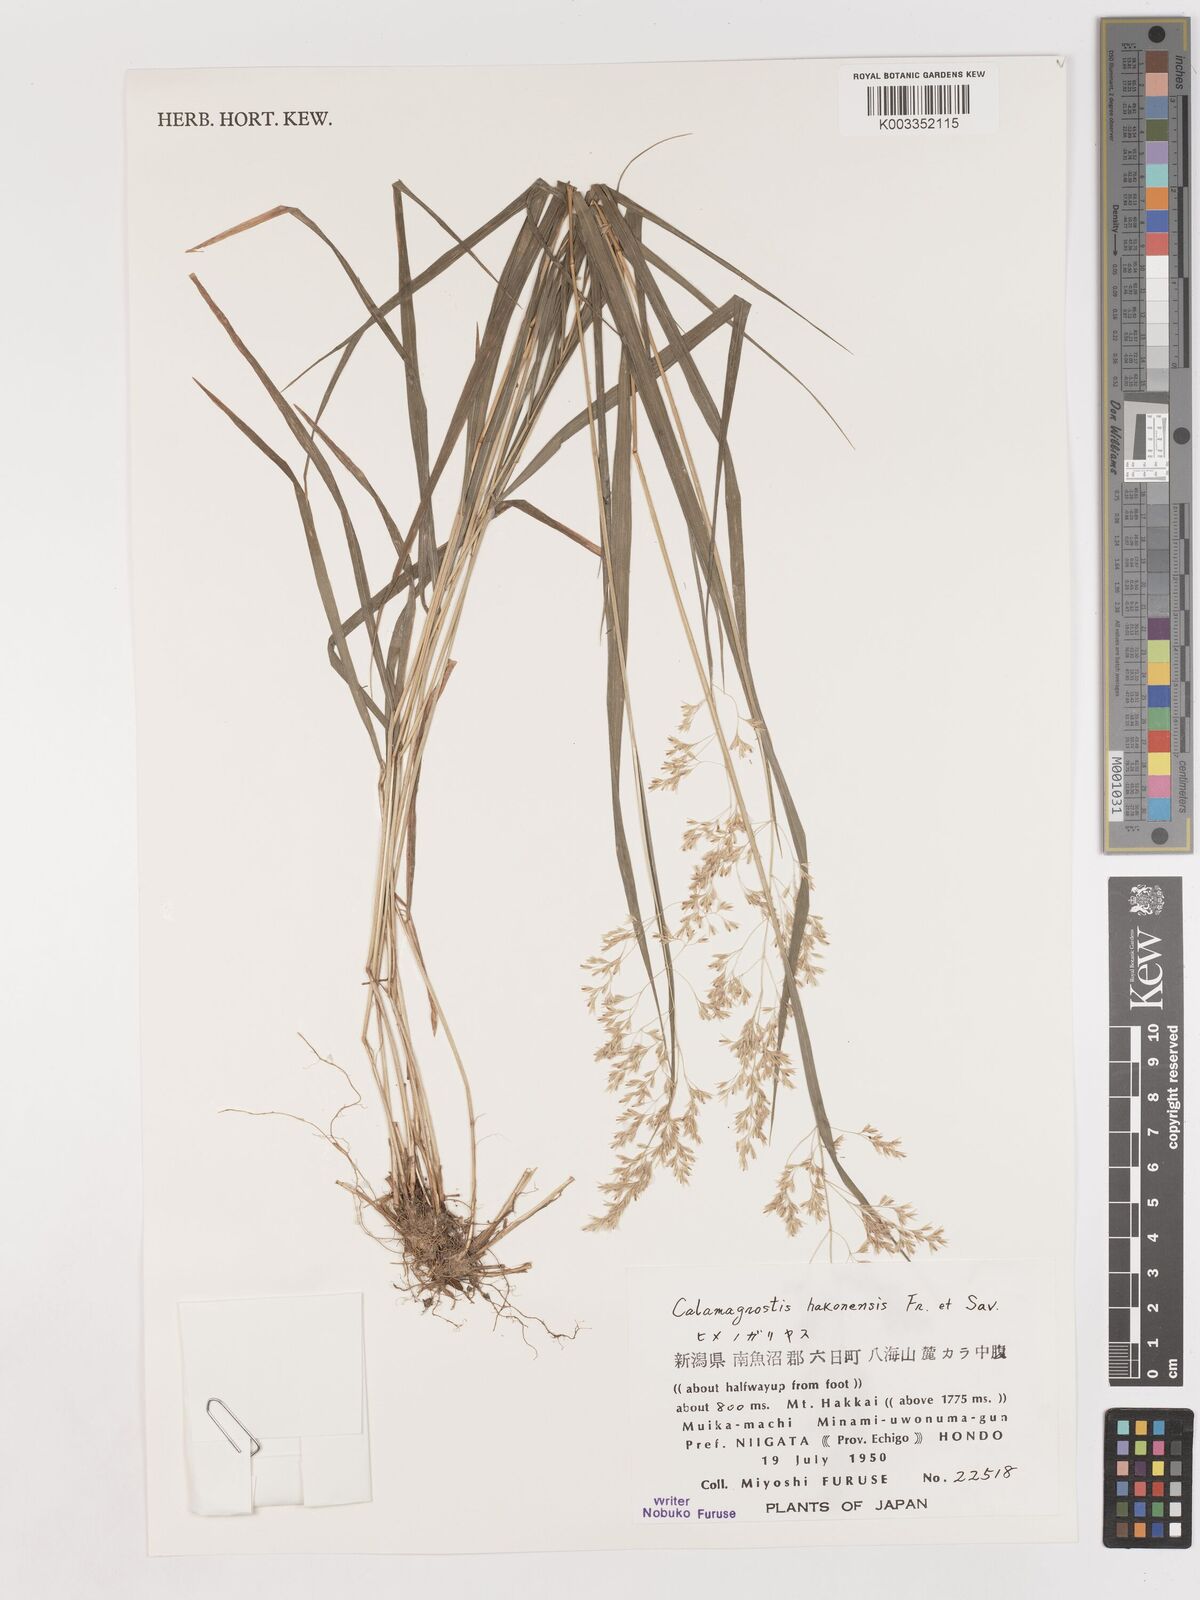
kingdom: Plantae
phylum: Tracheophyta
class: Liliopsida
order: Poales
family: Poaceae
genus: Calamagrostis
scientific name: Calamagrostis hakonensis
